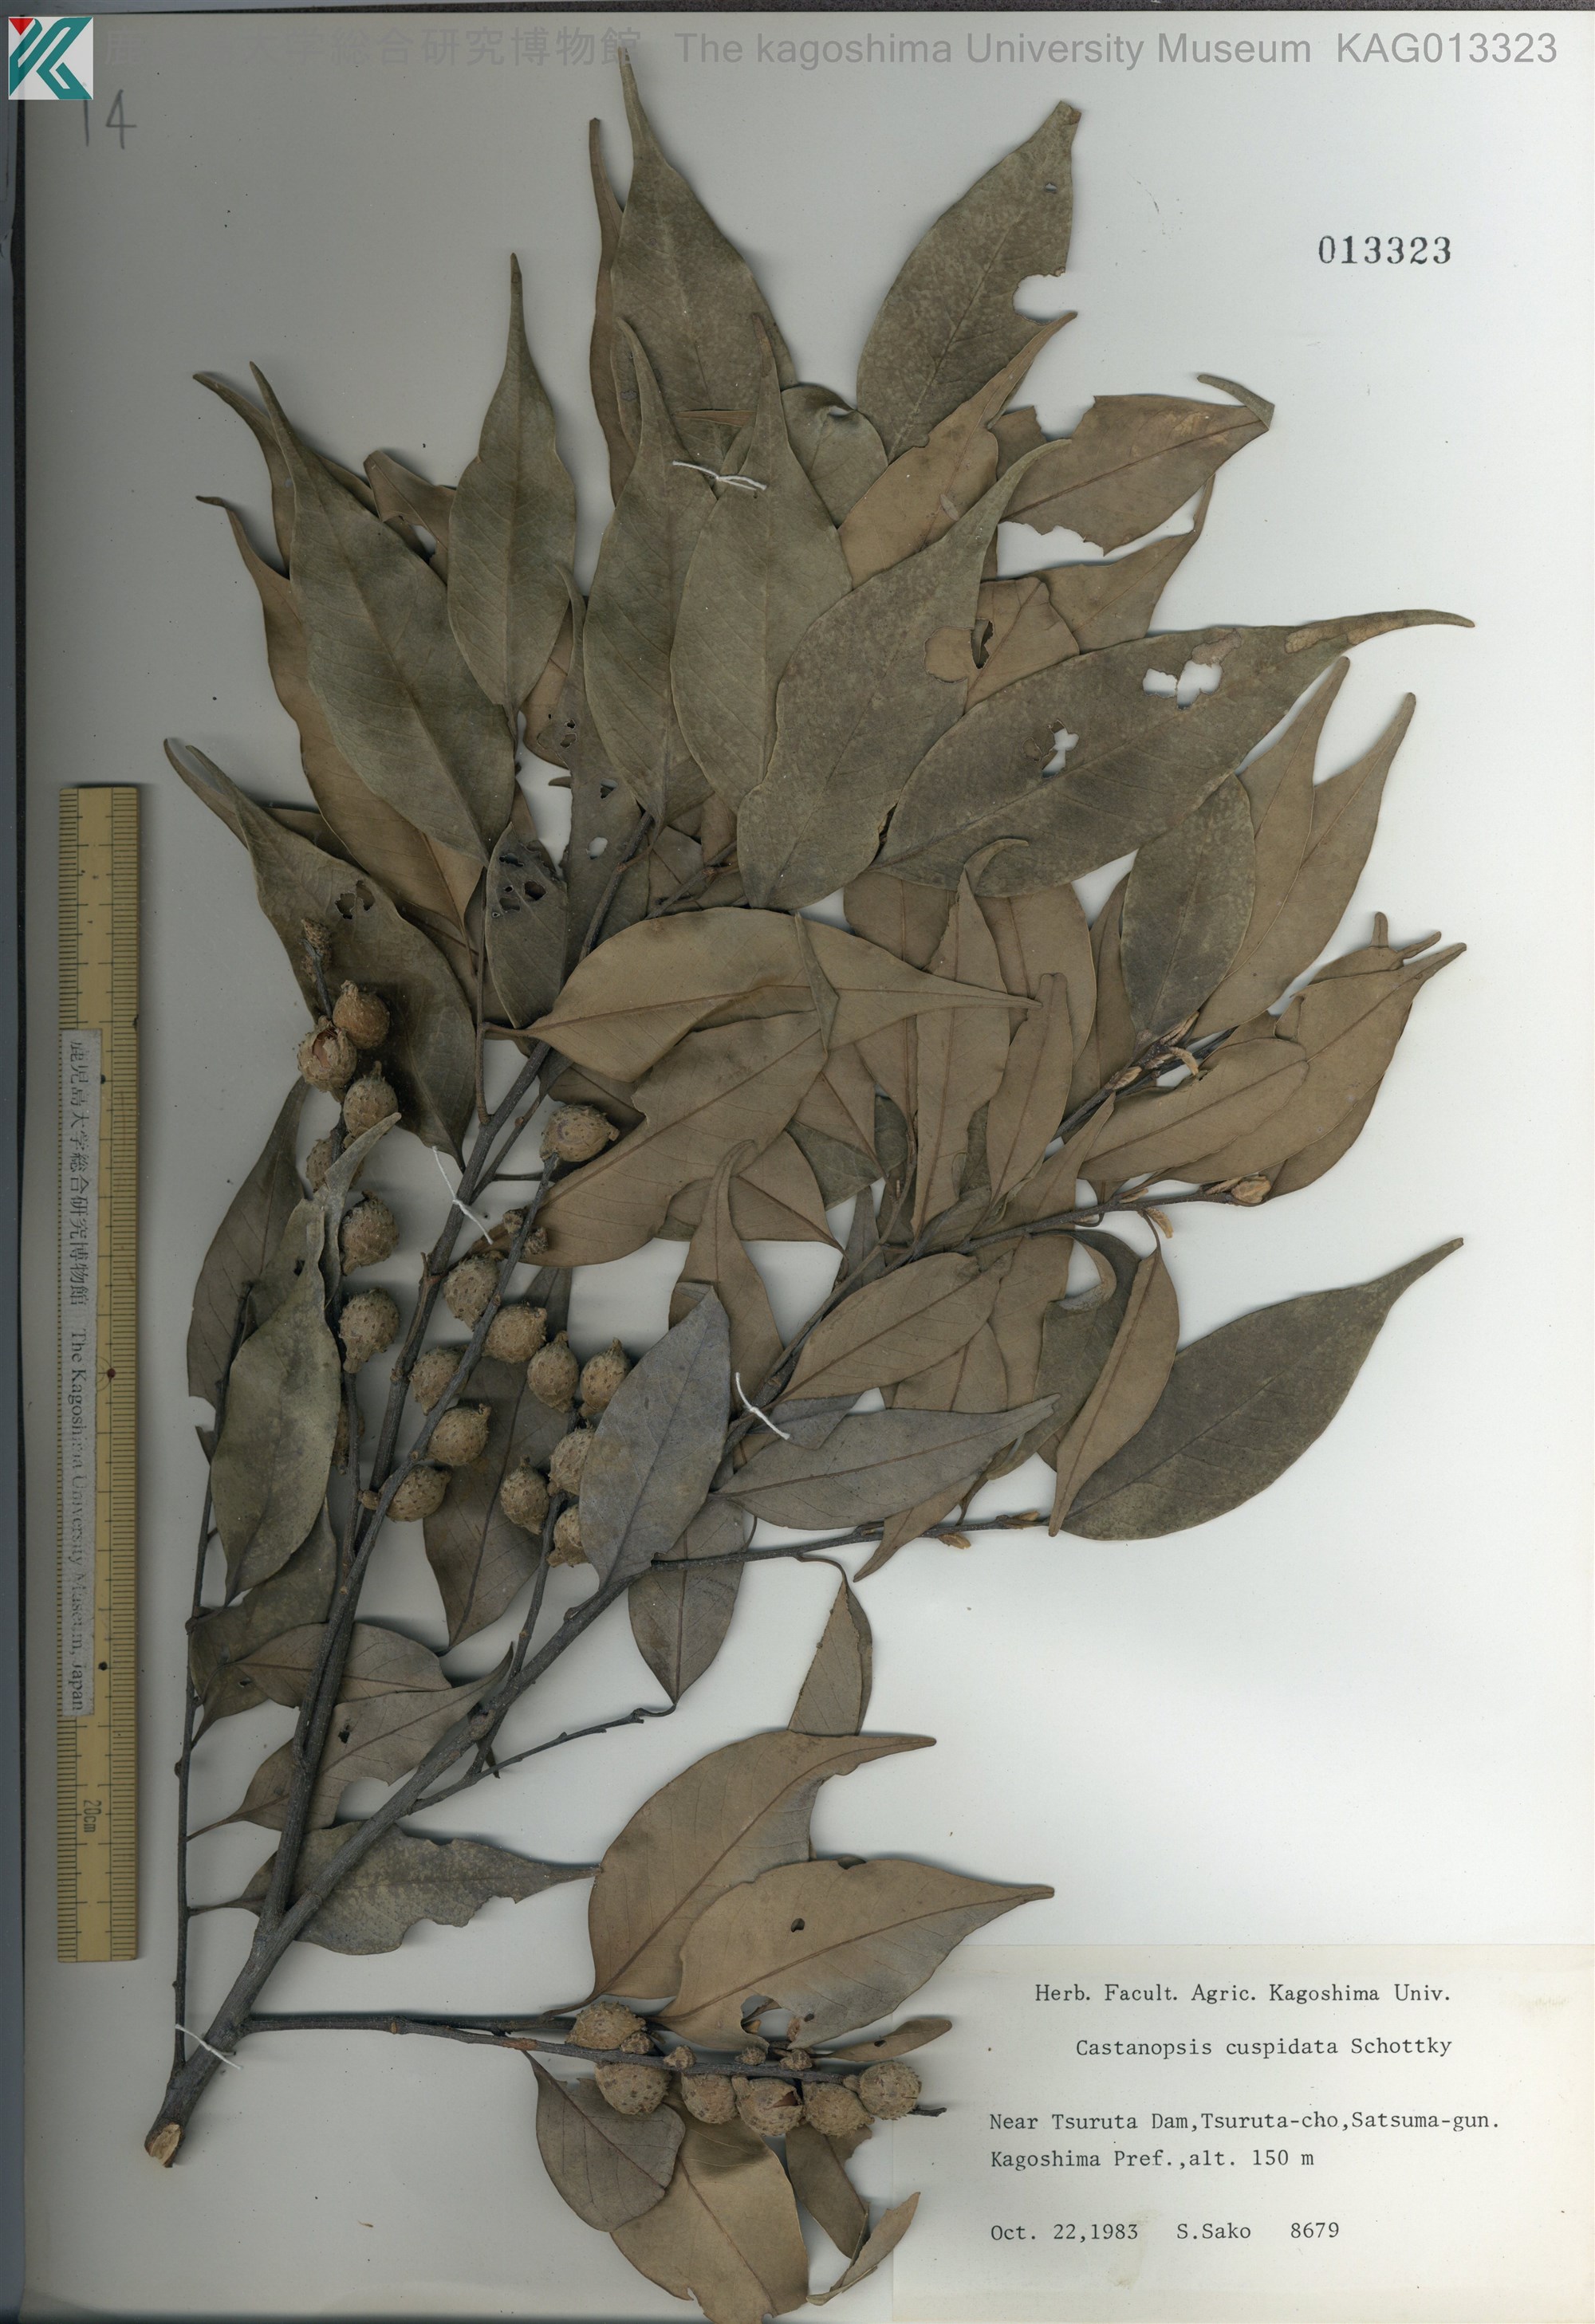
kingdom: Plantae
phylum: Tracheophyta
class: Magnoliopsida
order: Fagales
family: Fagaceae
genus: Castanopsis
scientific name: Castanopsis cuspidata
